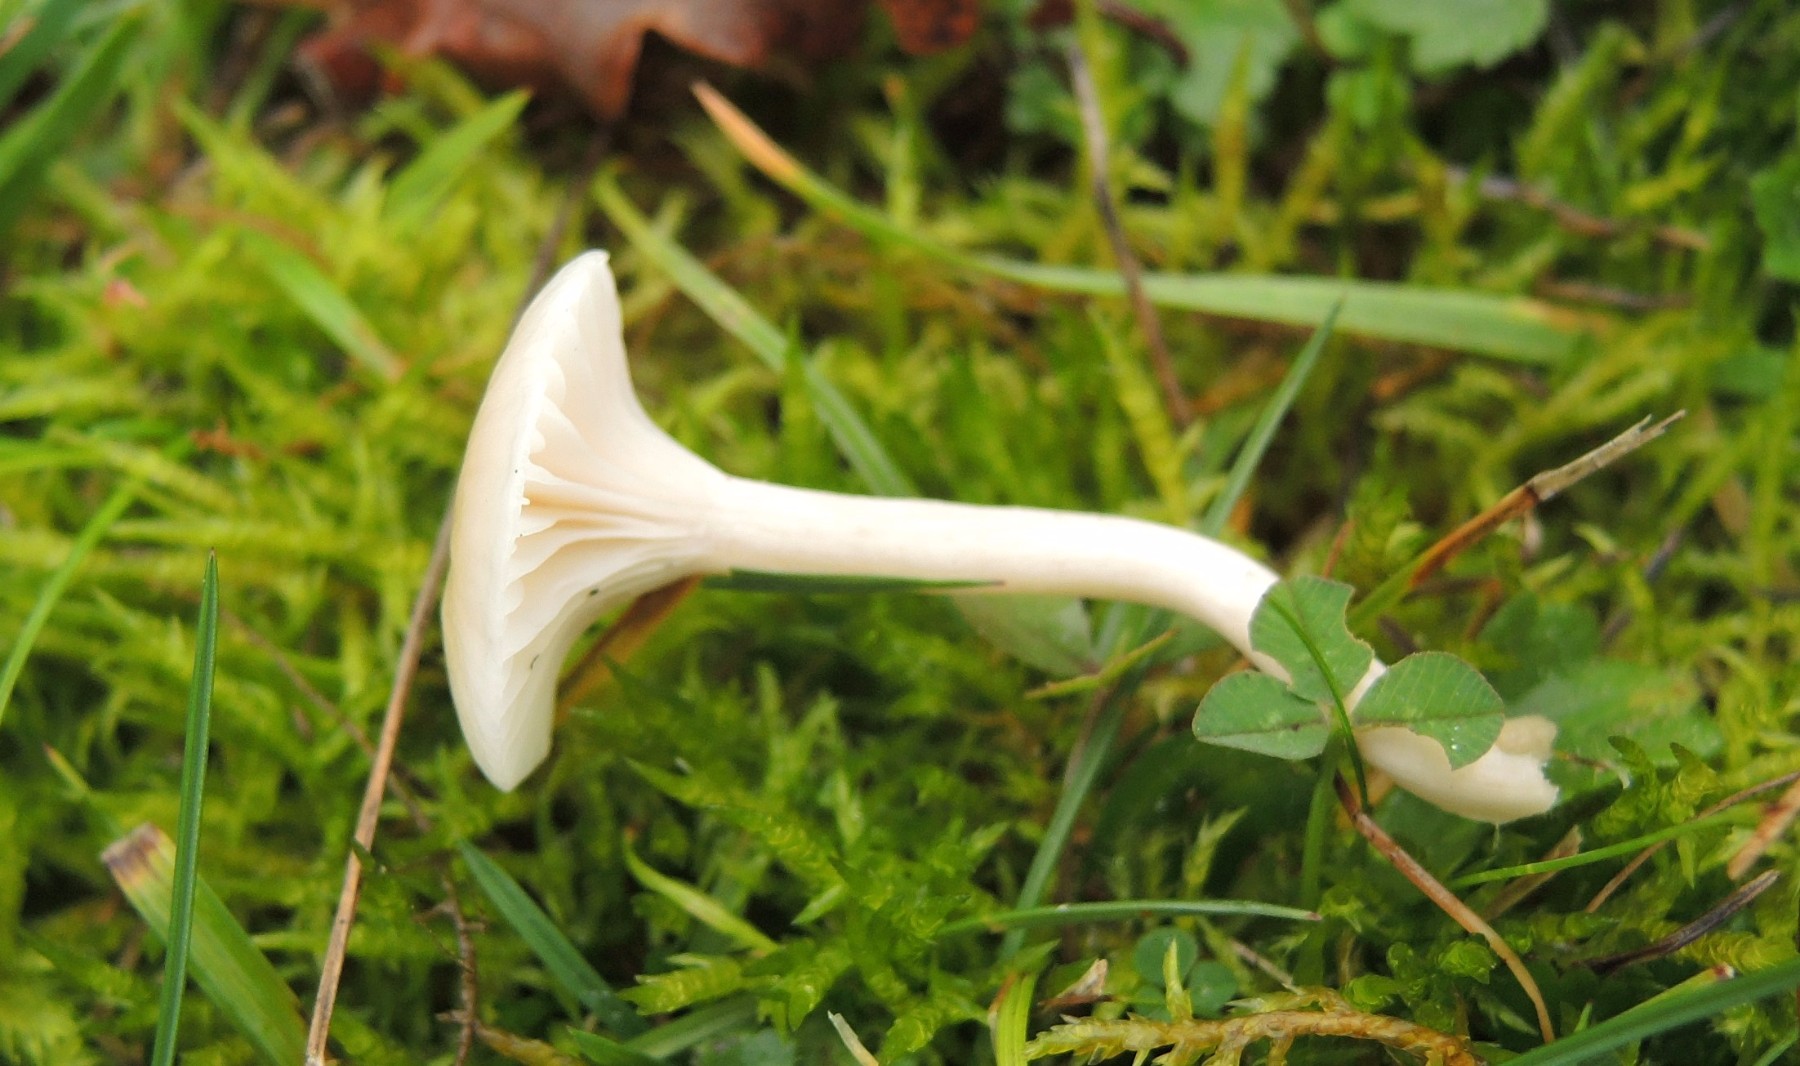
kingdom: Fungi
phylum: Basidiomycota
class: Agaricomycetes
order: Agaricales
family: Hygrophoraceae
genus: Cuphophyllus
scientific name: Cuphophyllus virgineus
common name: brunøjet vokshat
